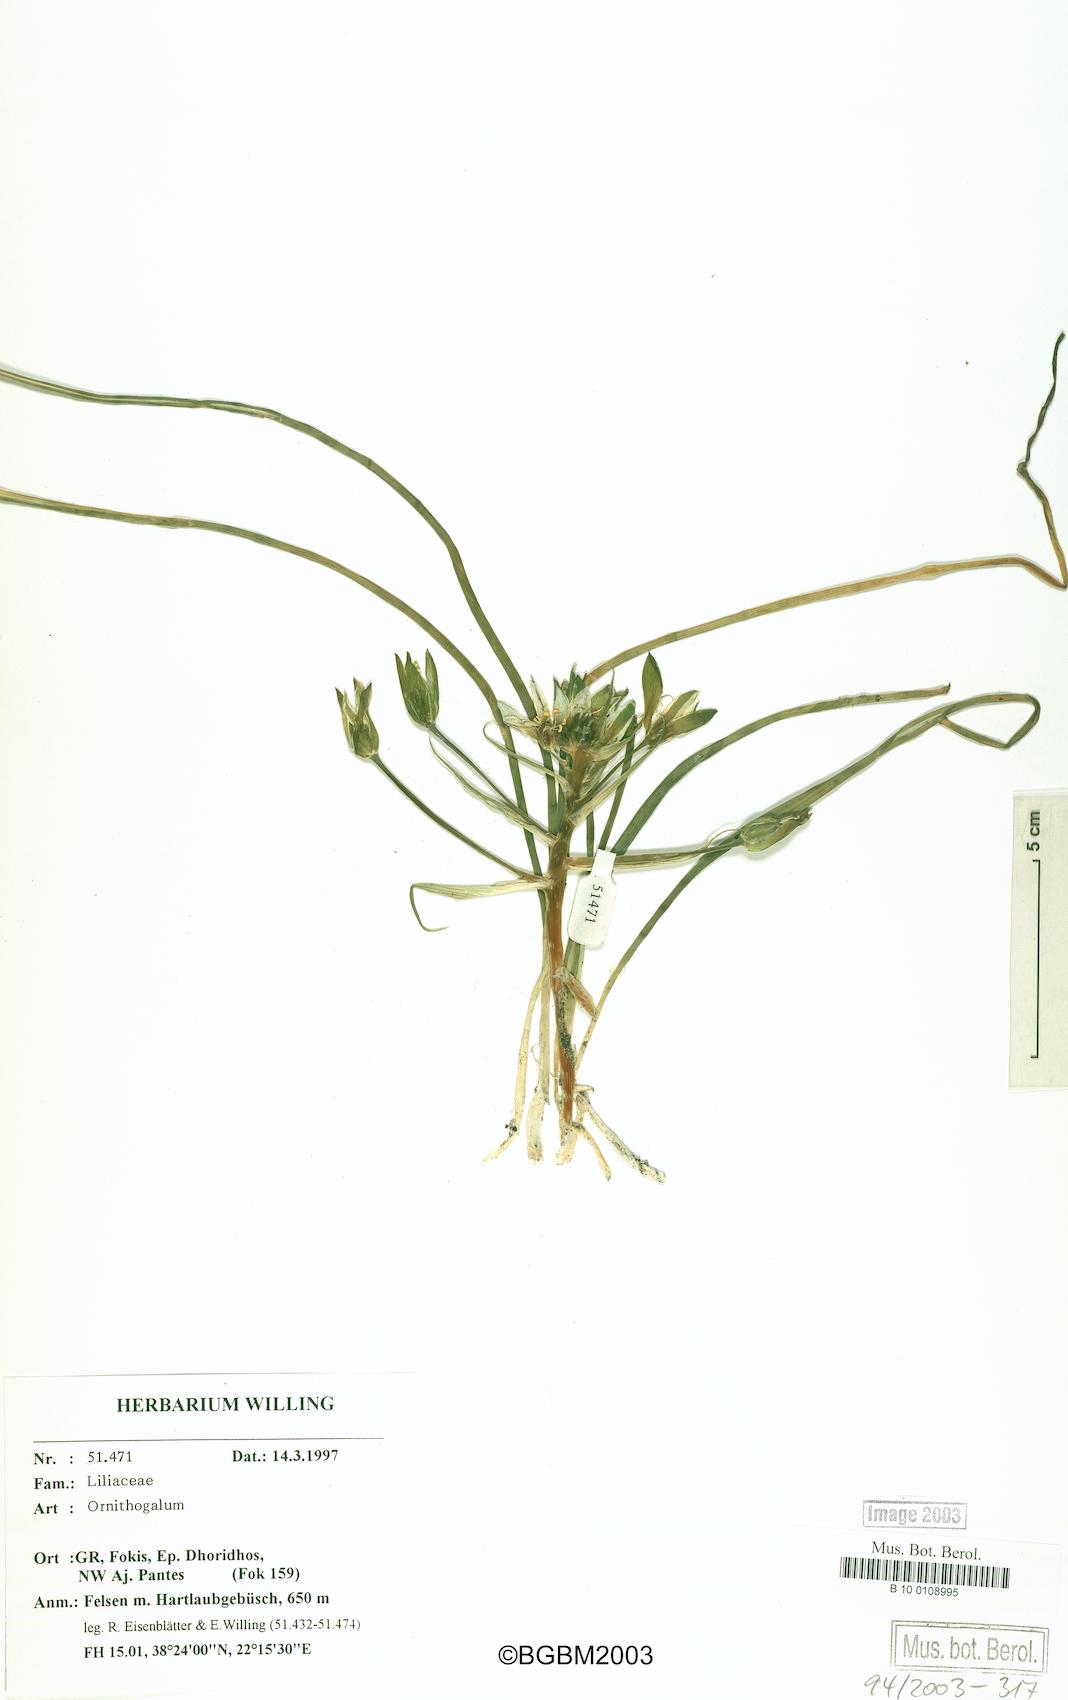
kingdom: Plantae
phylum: Tracheophyta
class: Liliopsida
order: Asparagales
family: Asparagaceae
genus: Ornithogalum
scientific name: Ornithogalum
